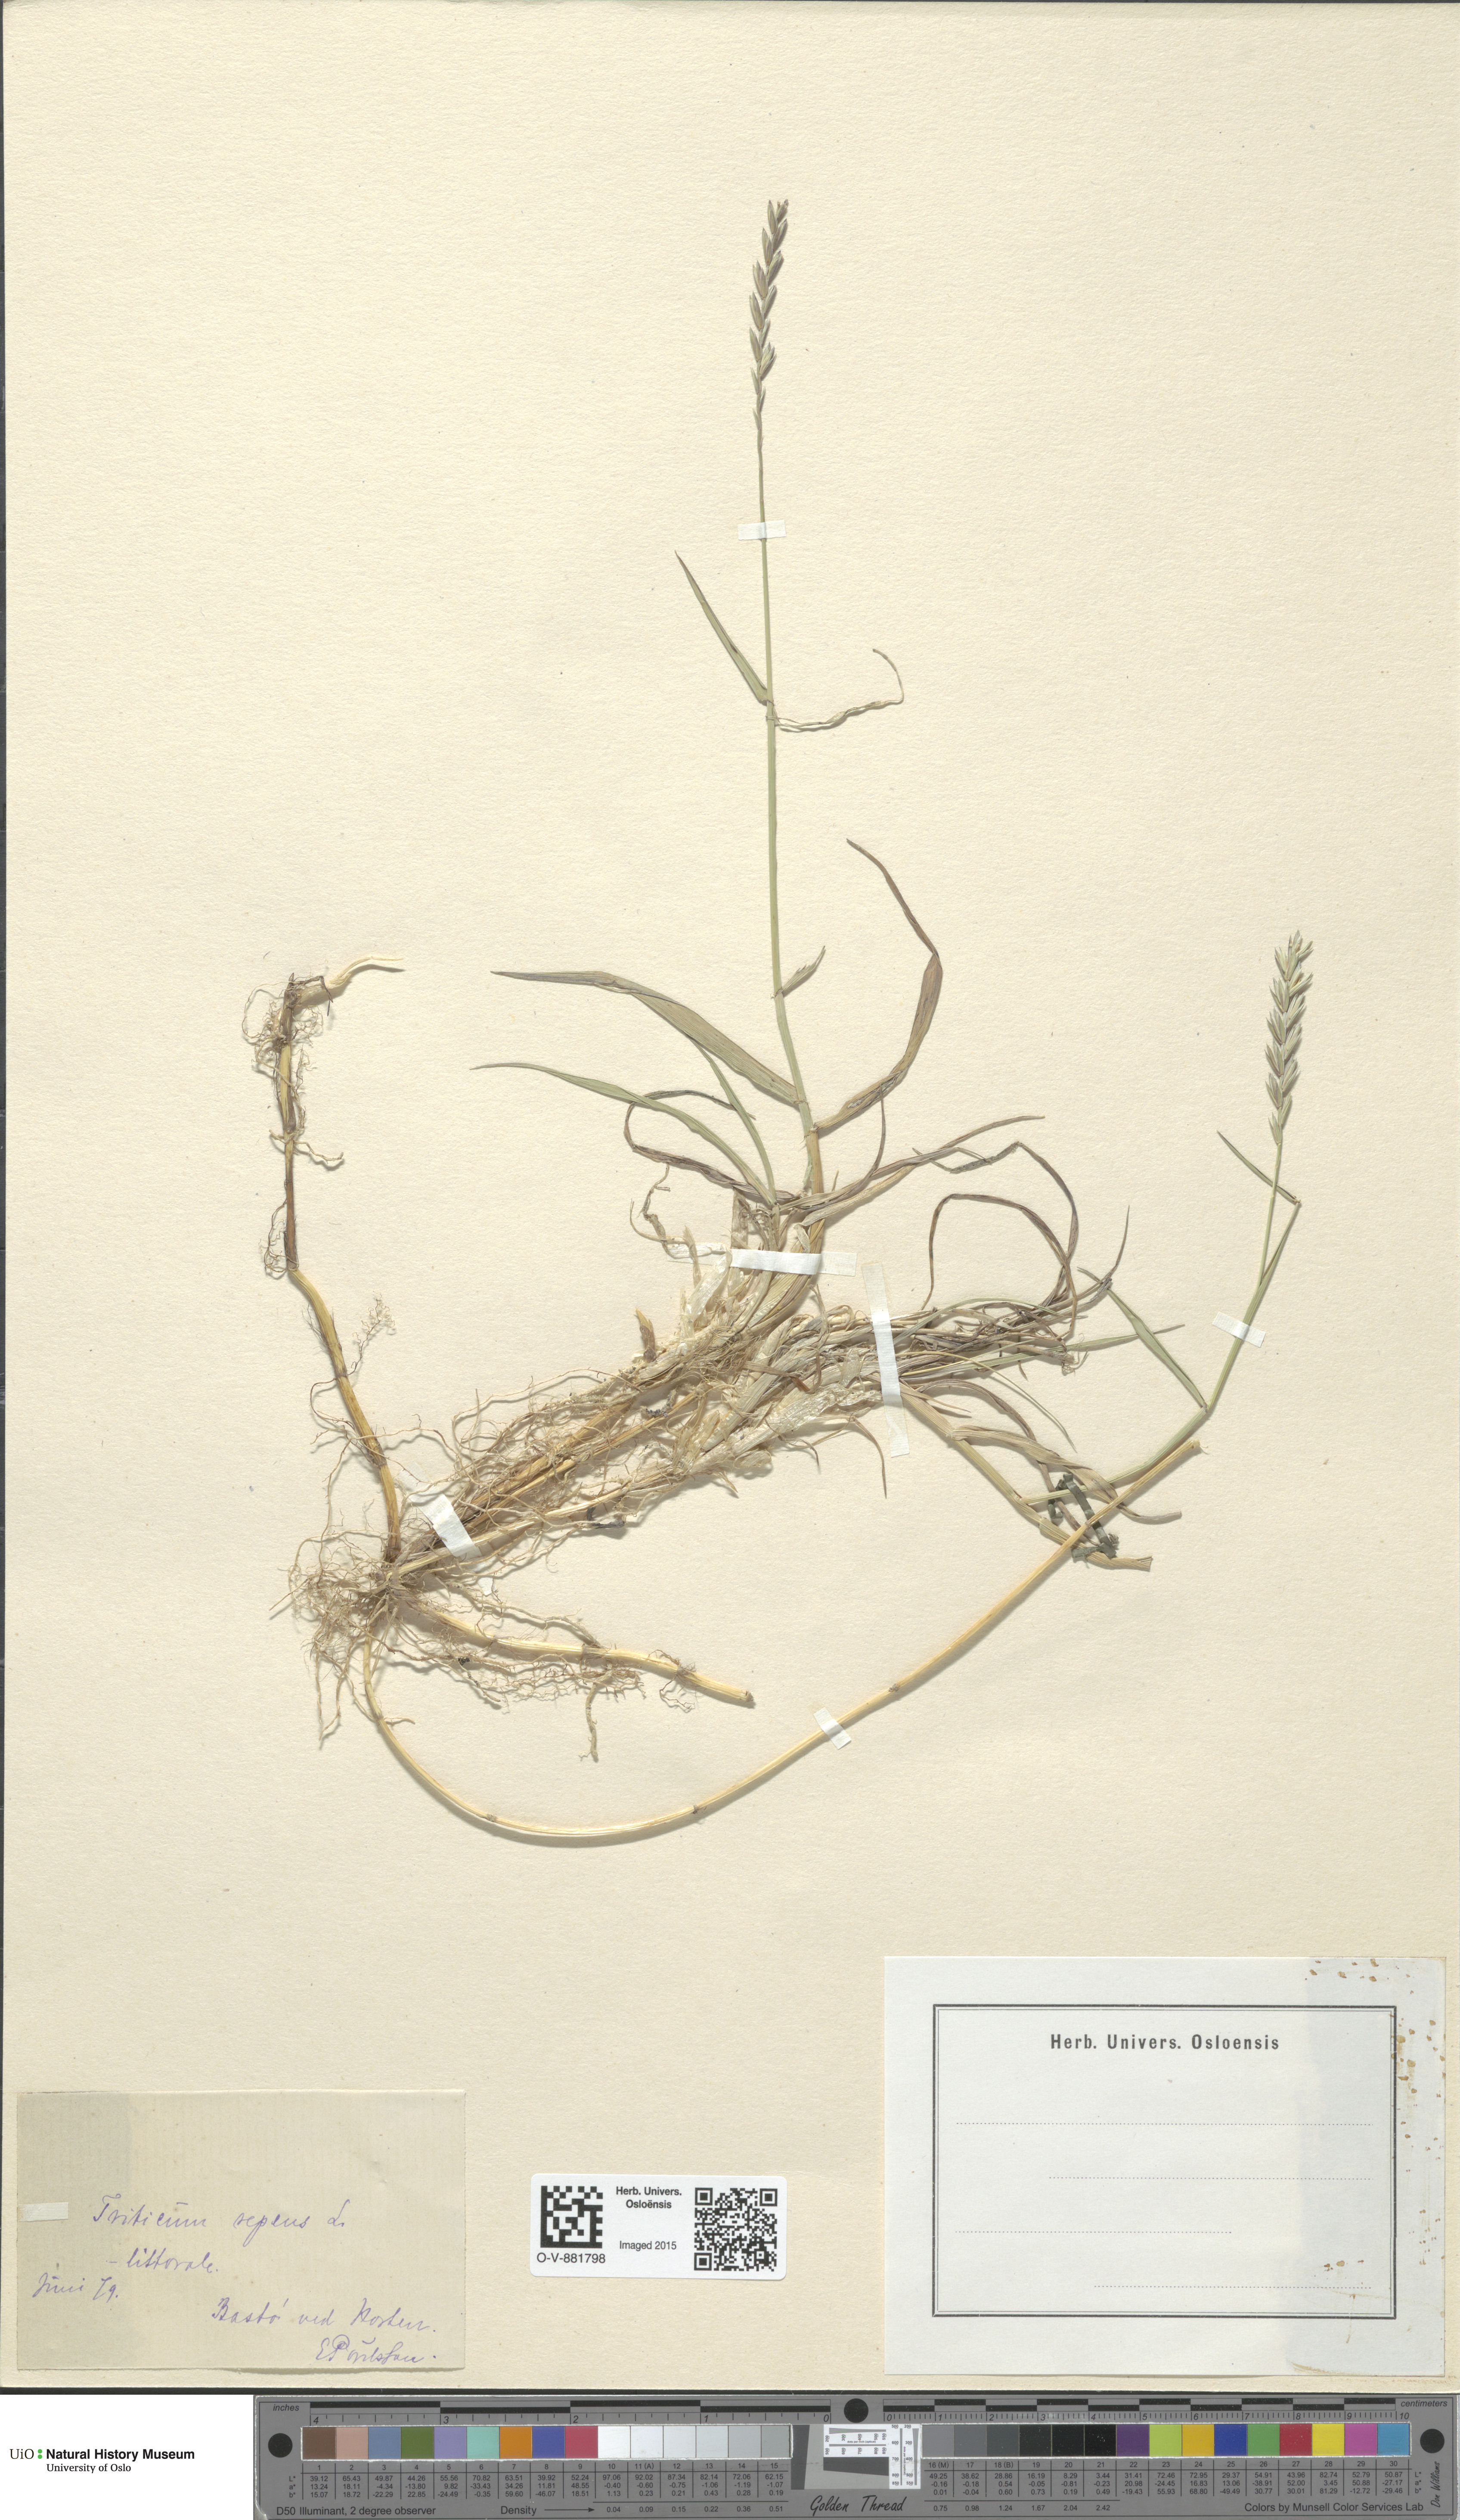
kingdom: Plantae
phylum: Tracheophyta
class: Liliopsida
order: Poales
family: Poaceae
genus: Elymus
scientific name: Elymus repens
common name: Quackgrass
